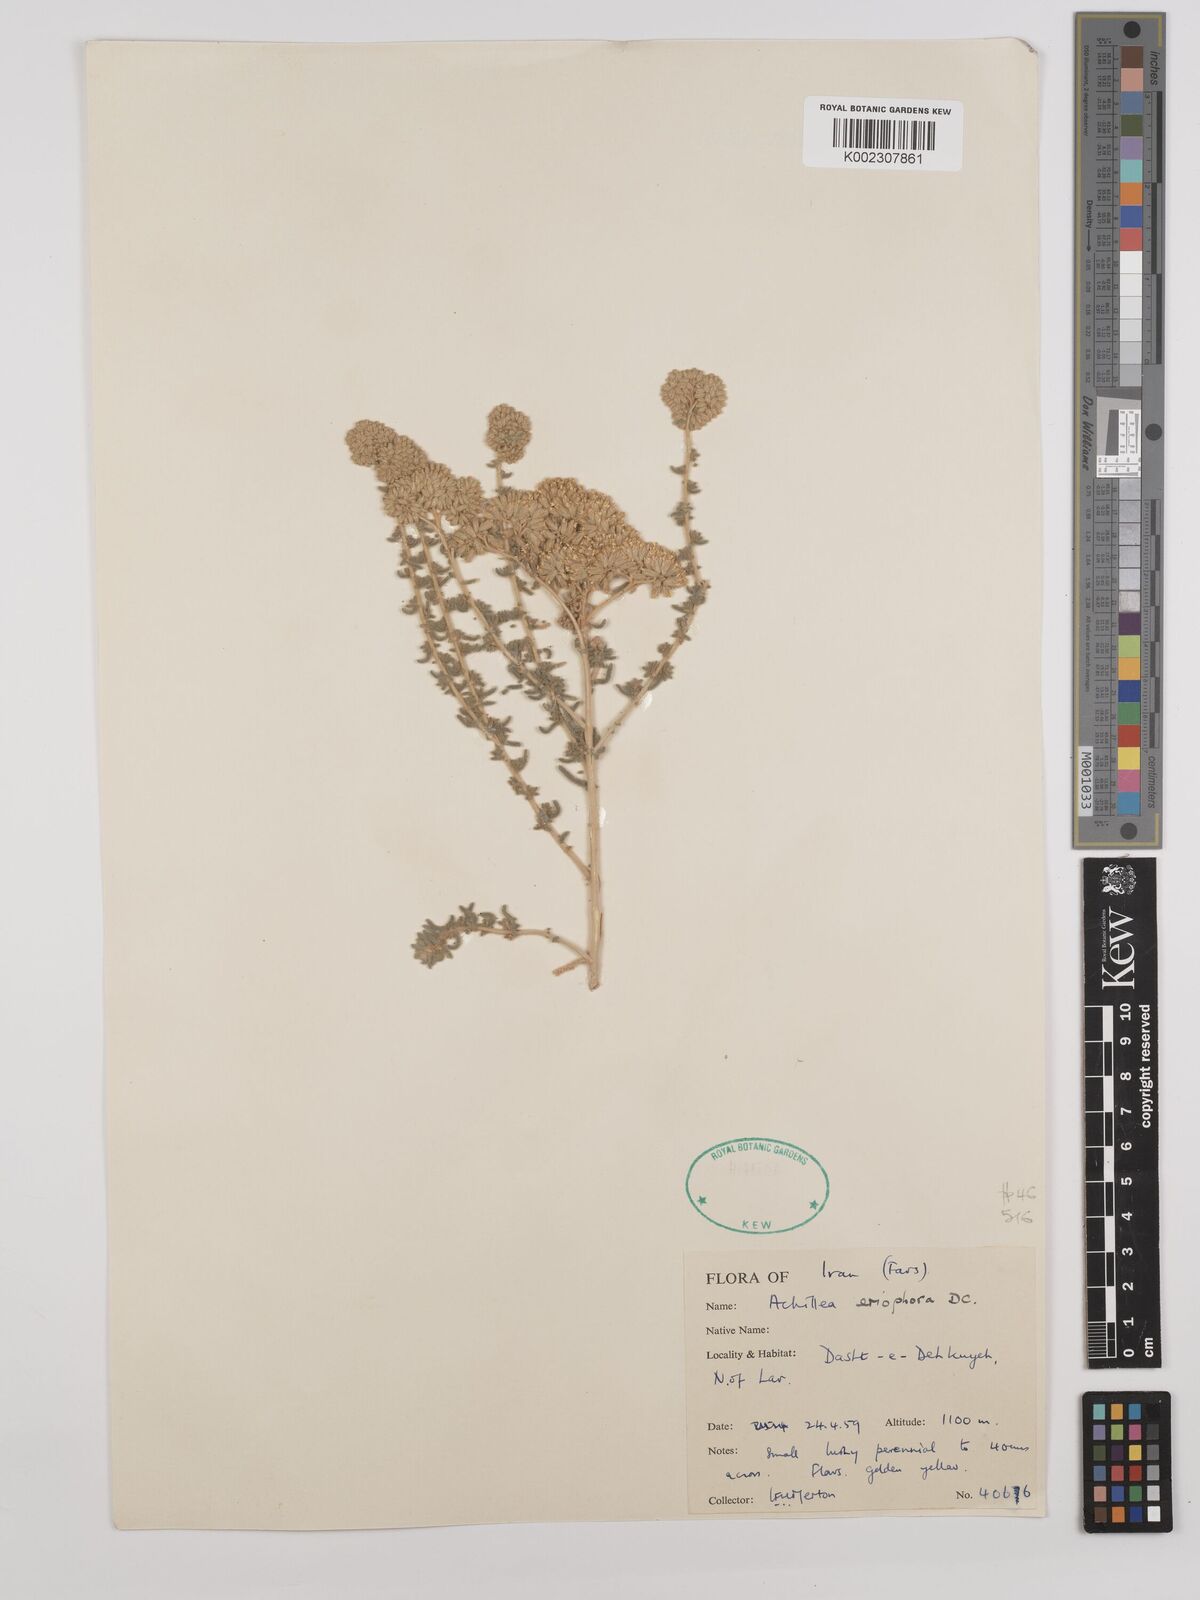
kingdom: Plantae
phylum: Tracheophyta
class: Magnoliopsida
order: Asterales
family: Asteraceae
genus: Achillea
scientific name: Achillea wilhelmsii
